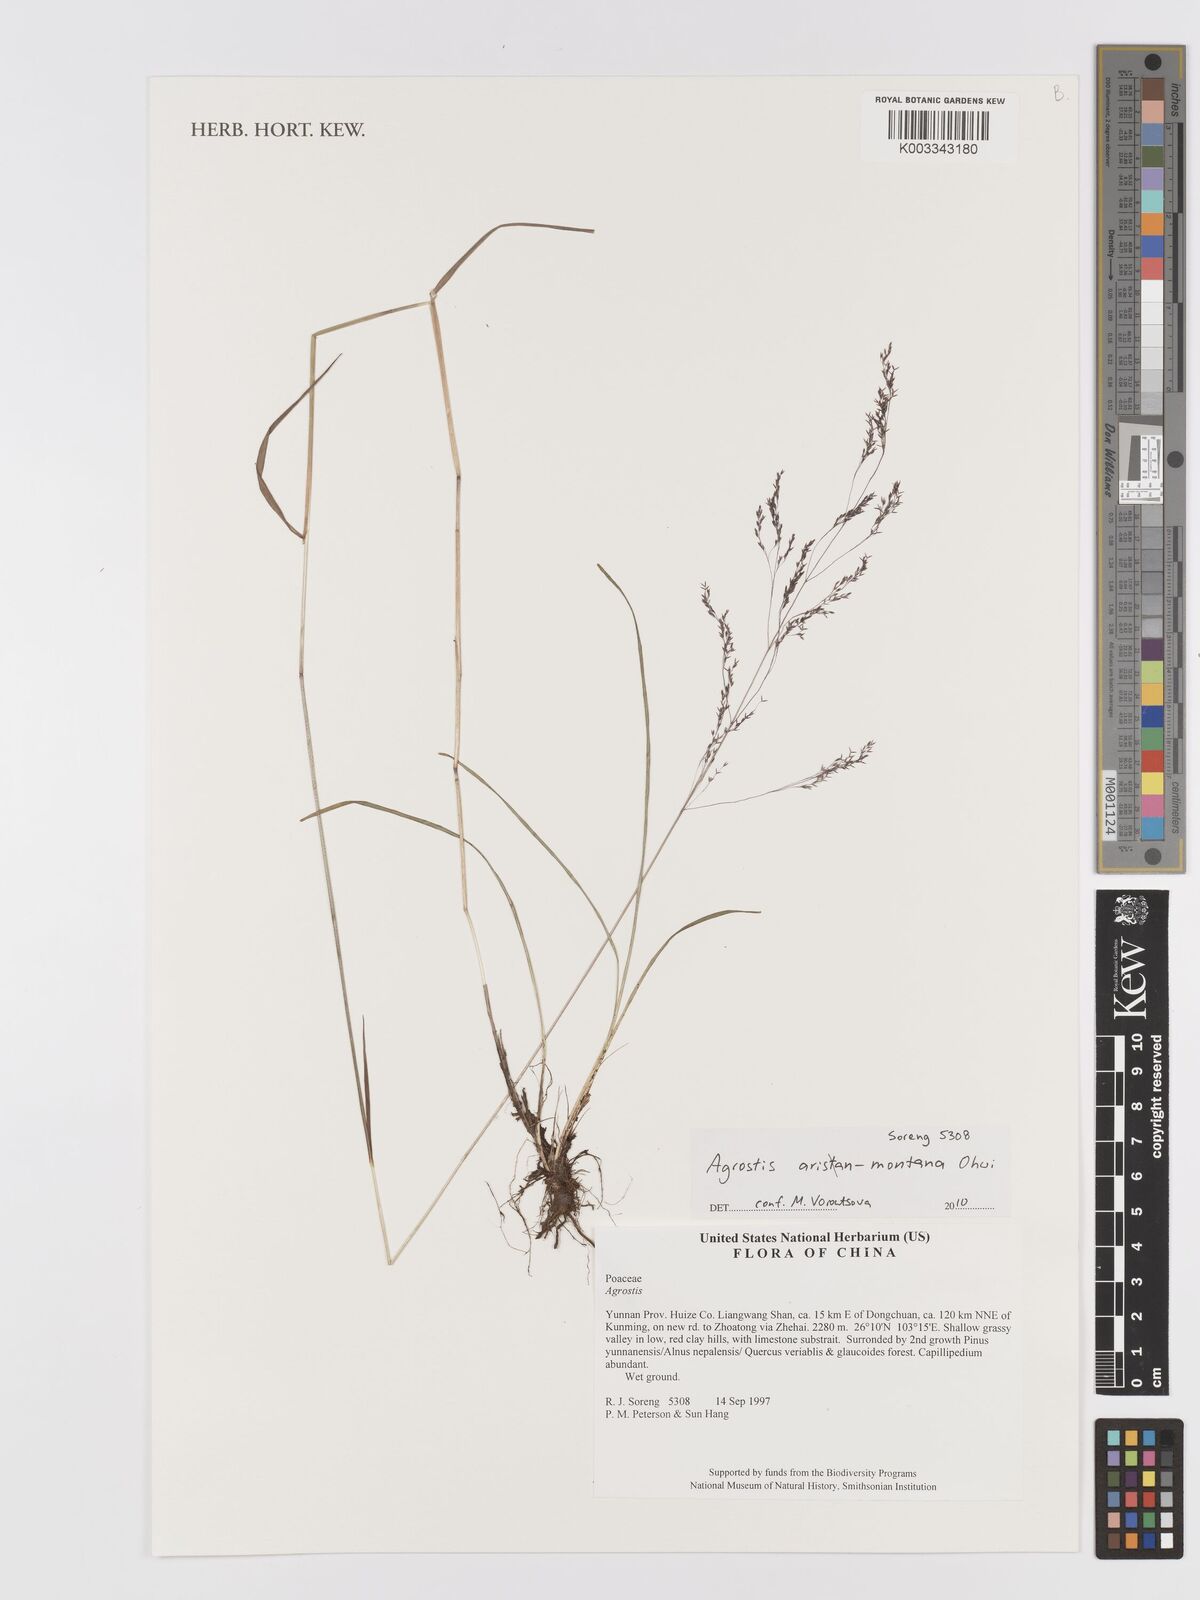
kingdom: Plantae
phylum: Tracheophyta
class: Liliopsida
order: Poales
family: Poaceae
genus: Agrostis
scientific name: Agrostis infirma
